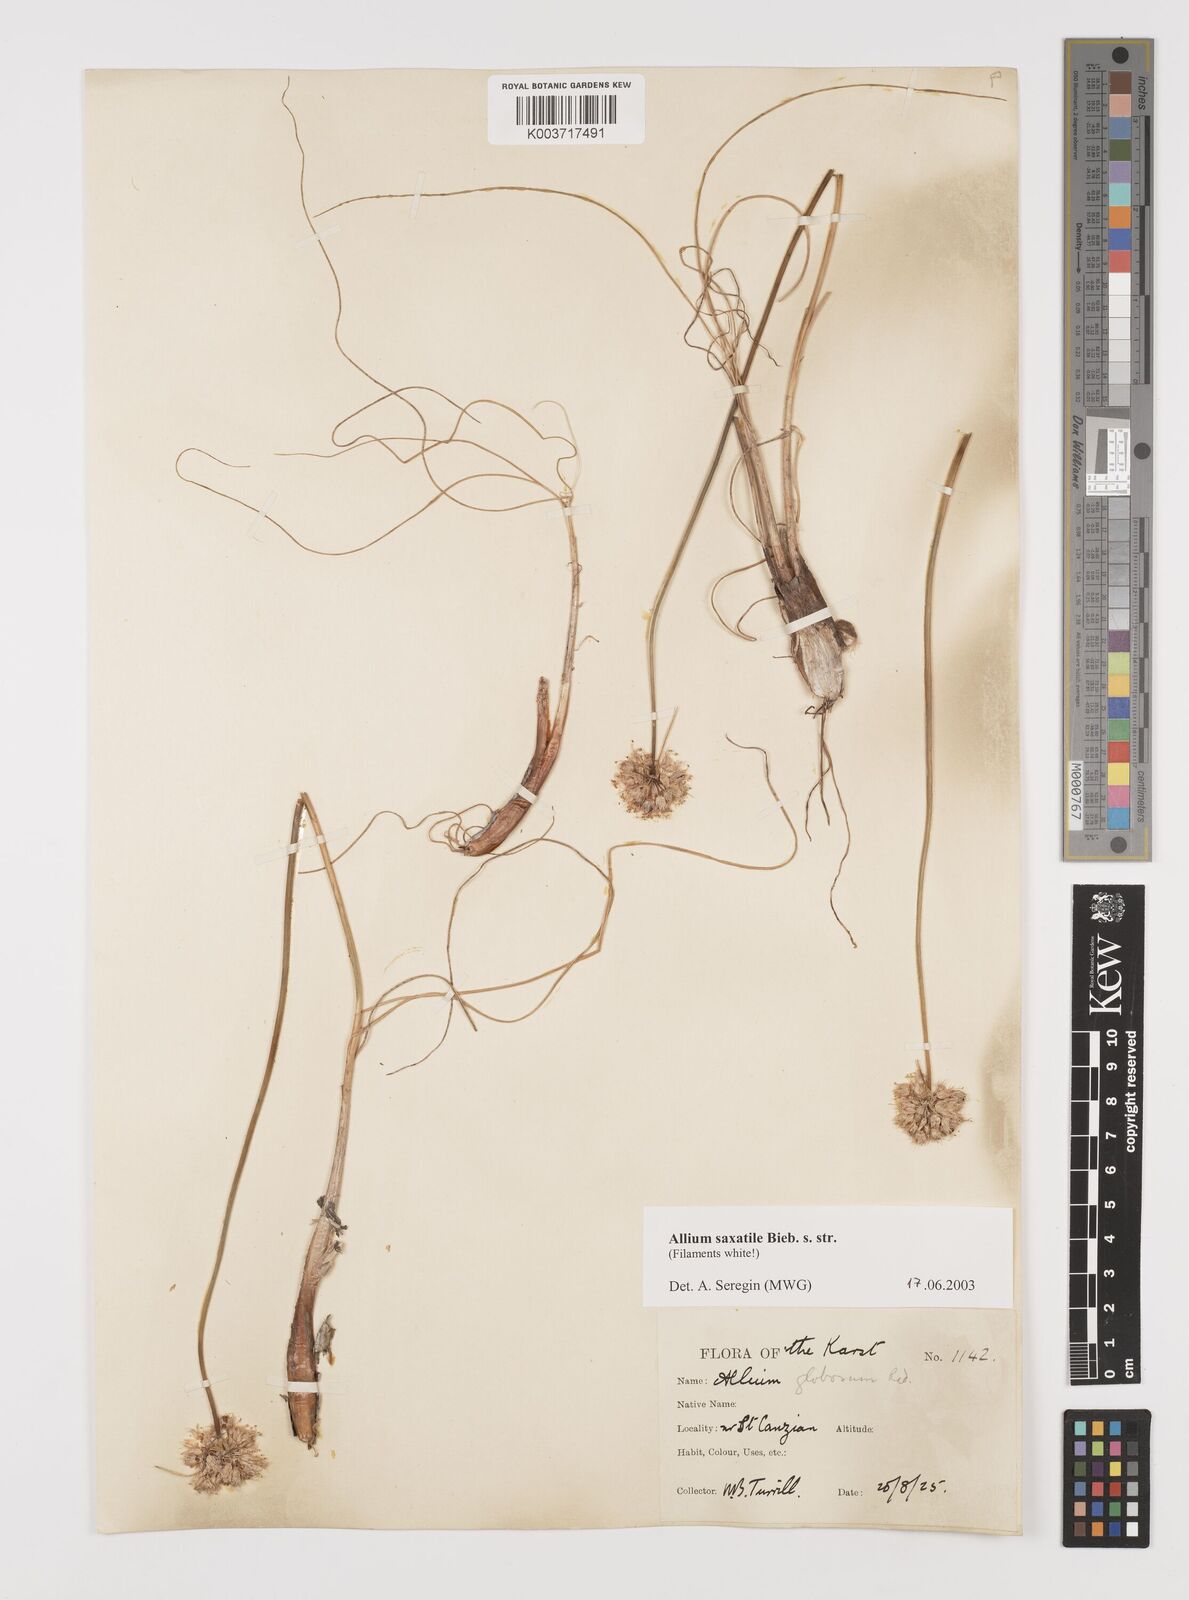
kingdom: Plantae
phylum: Tracheophyta
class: Liliopsida
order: Asparagales
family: Amaryllidaceae
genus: Allium
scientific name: Allium saxatile
